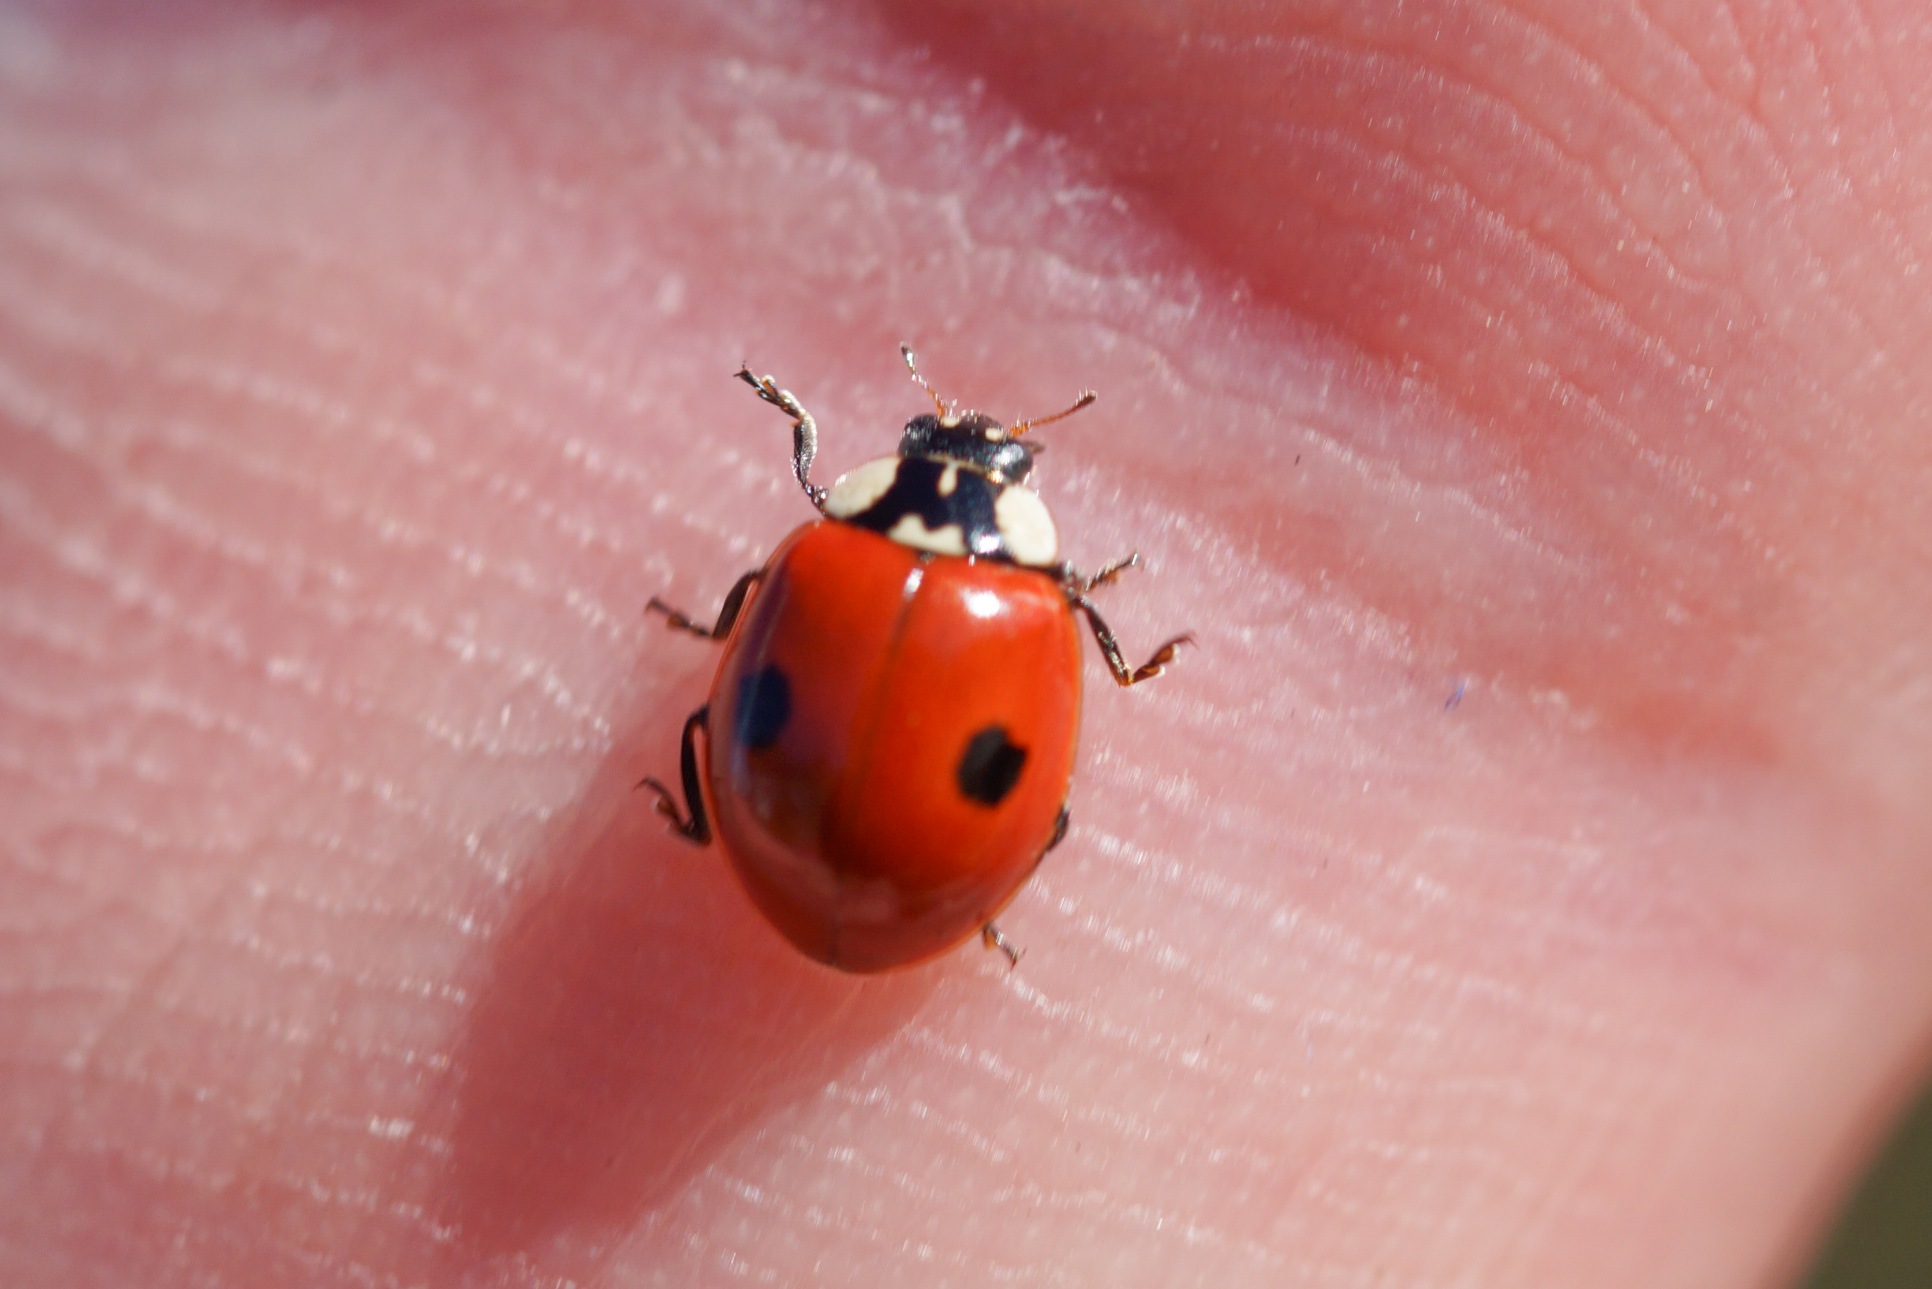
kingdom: Animalia
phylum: Arthropoda
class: Insecta
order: Coleoptera
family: Coccinellidae
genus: Adalia
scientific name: Adalia bipunctata
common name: Toplettet mariehøne
